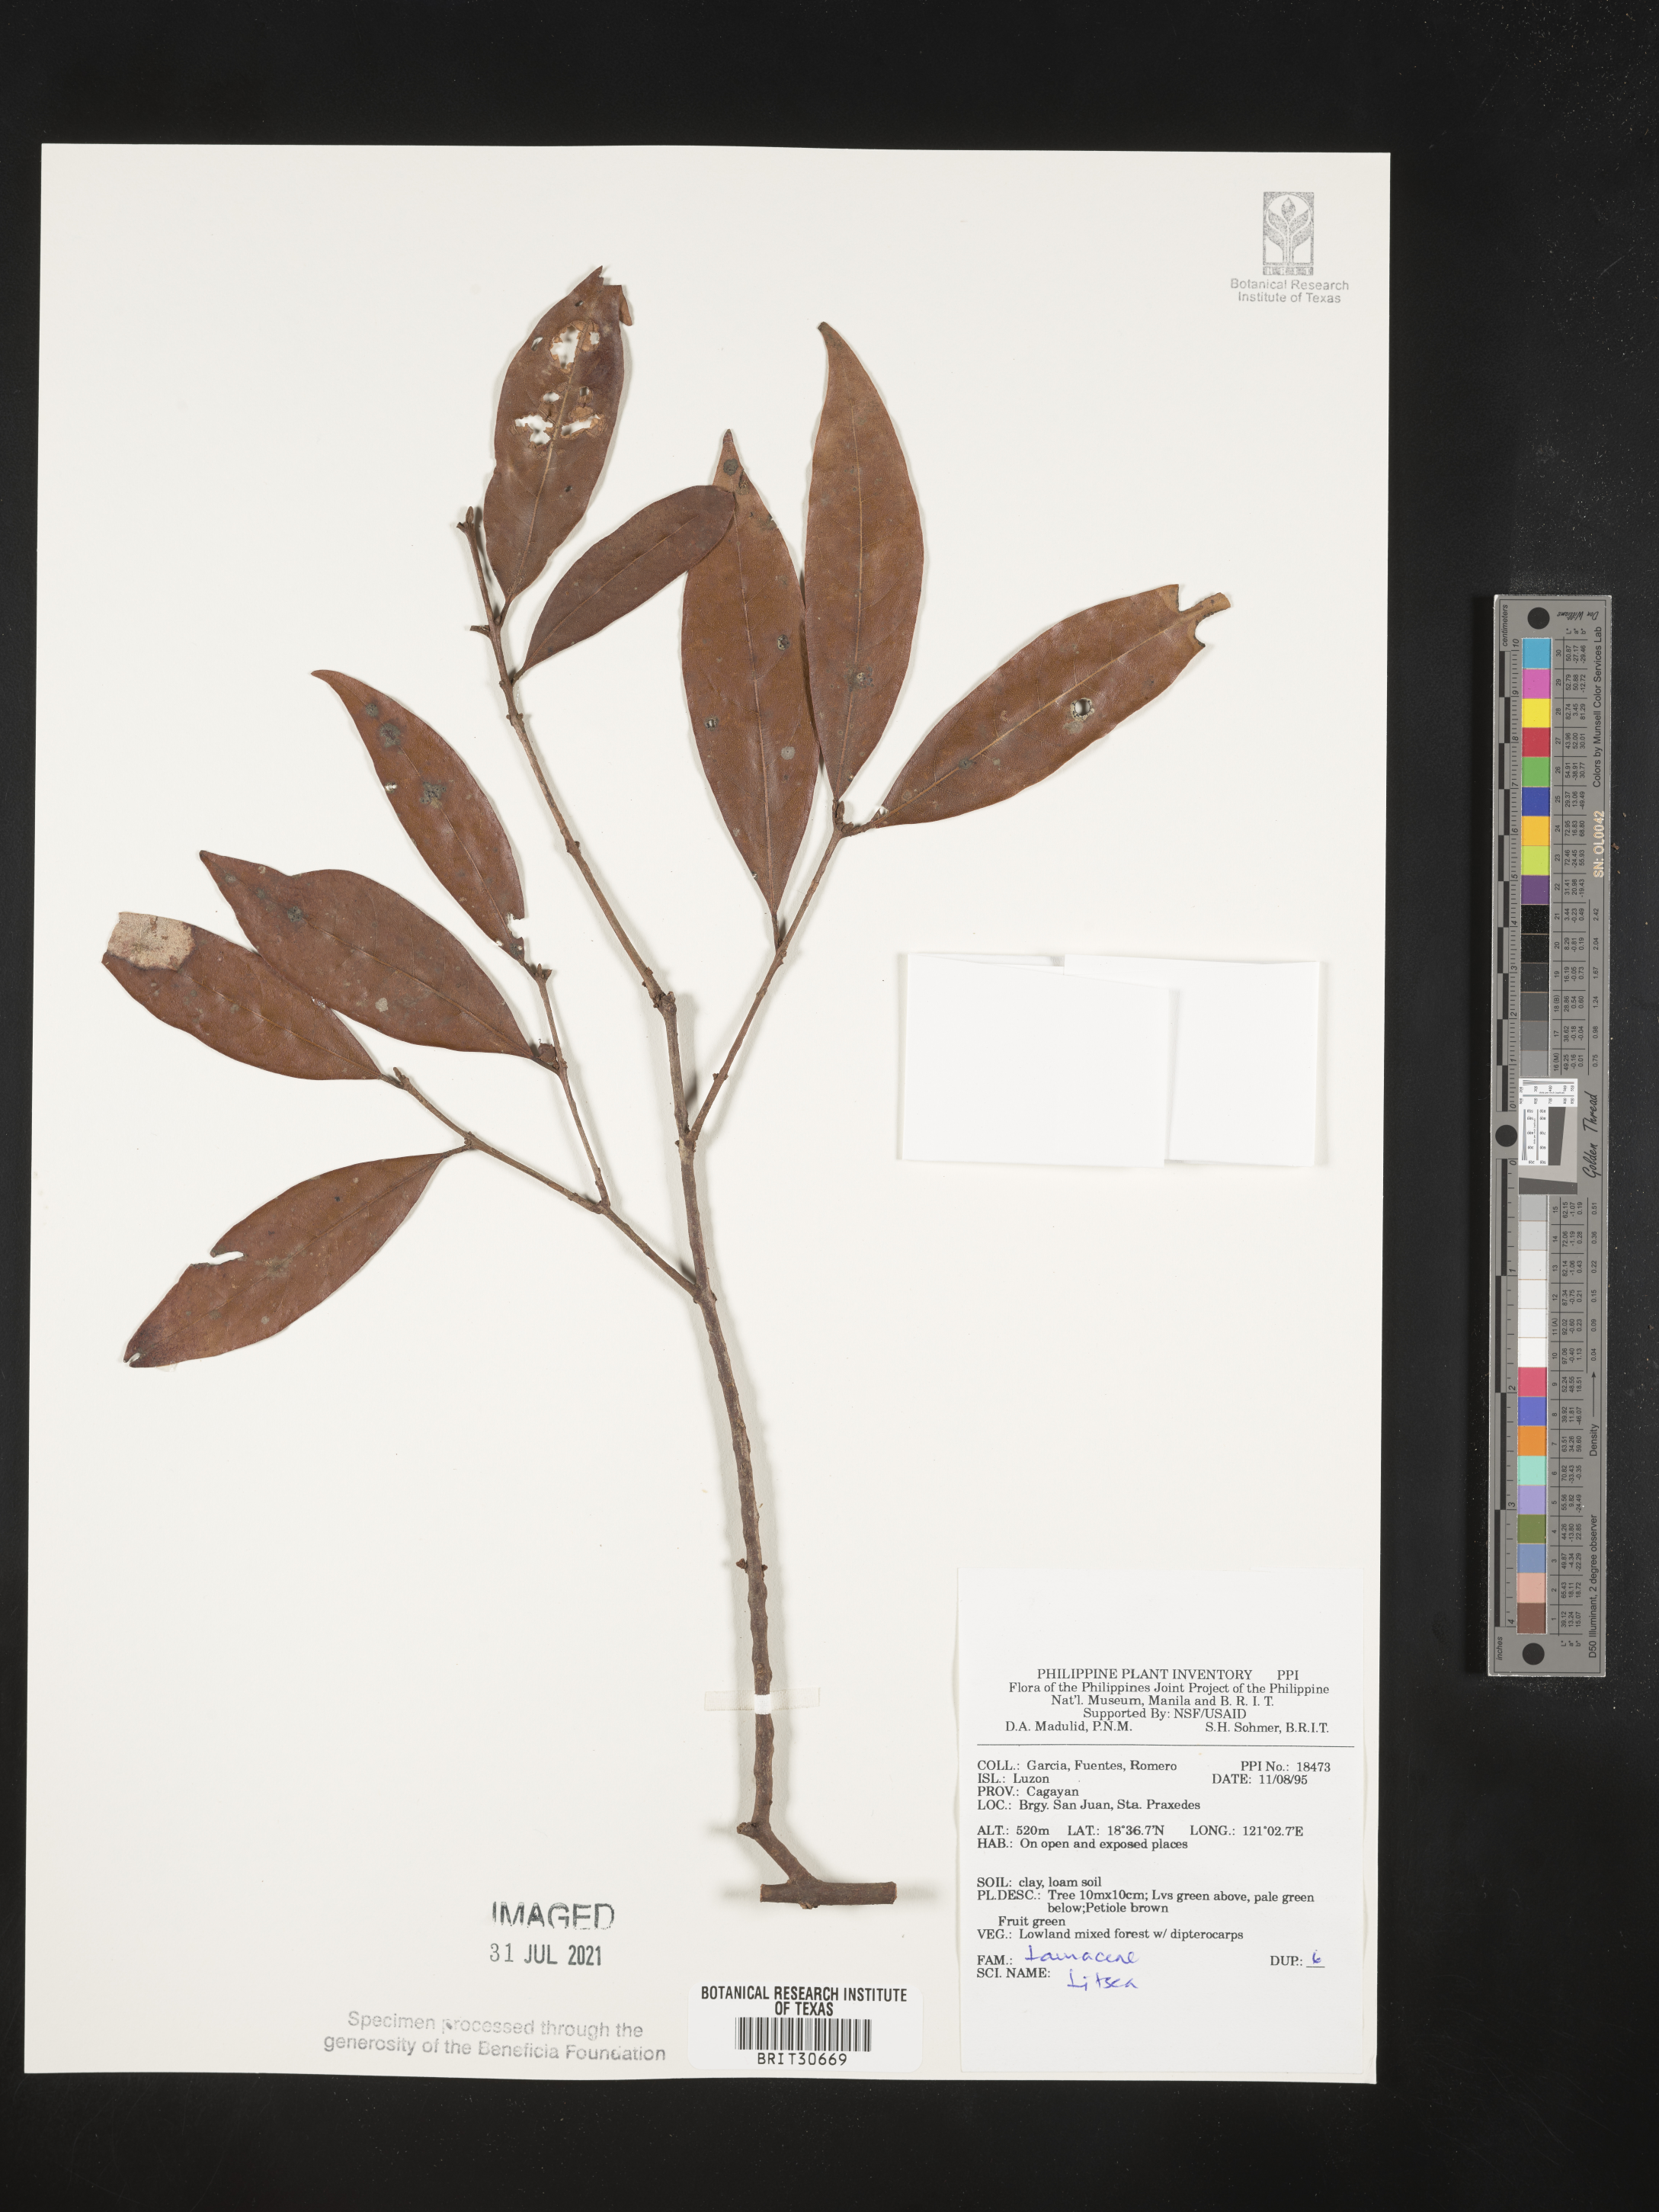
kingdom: Plantae
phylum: Tracheophyta
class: Magnoliopsida
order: Laurales
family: Lauraceae
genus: Litsea
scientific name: Litsea
